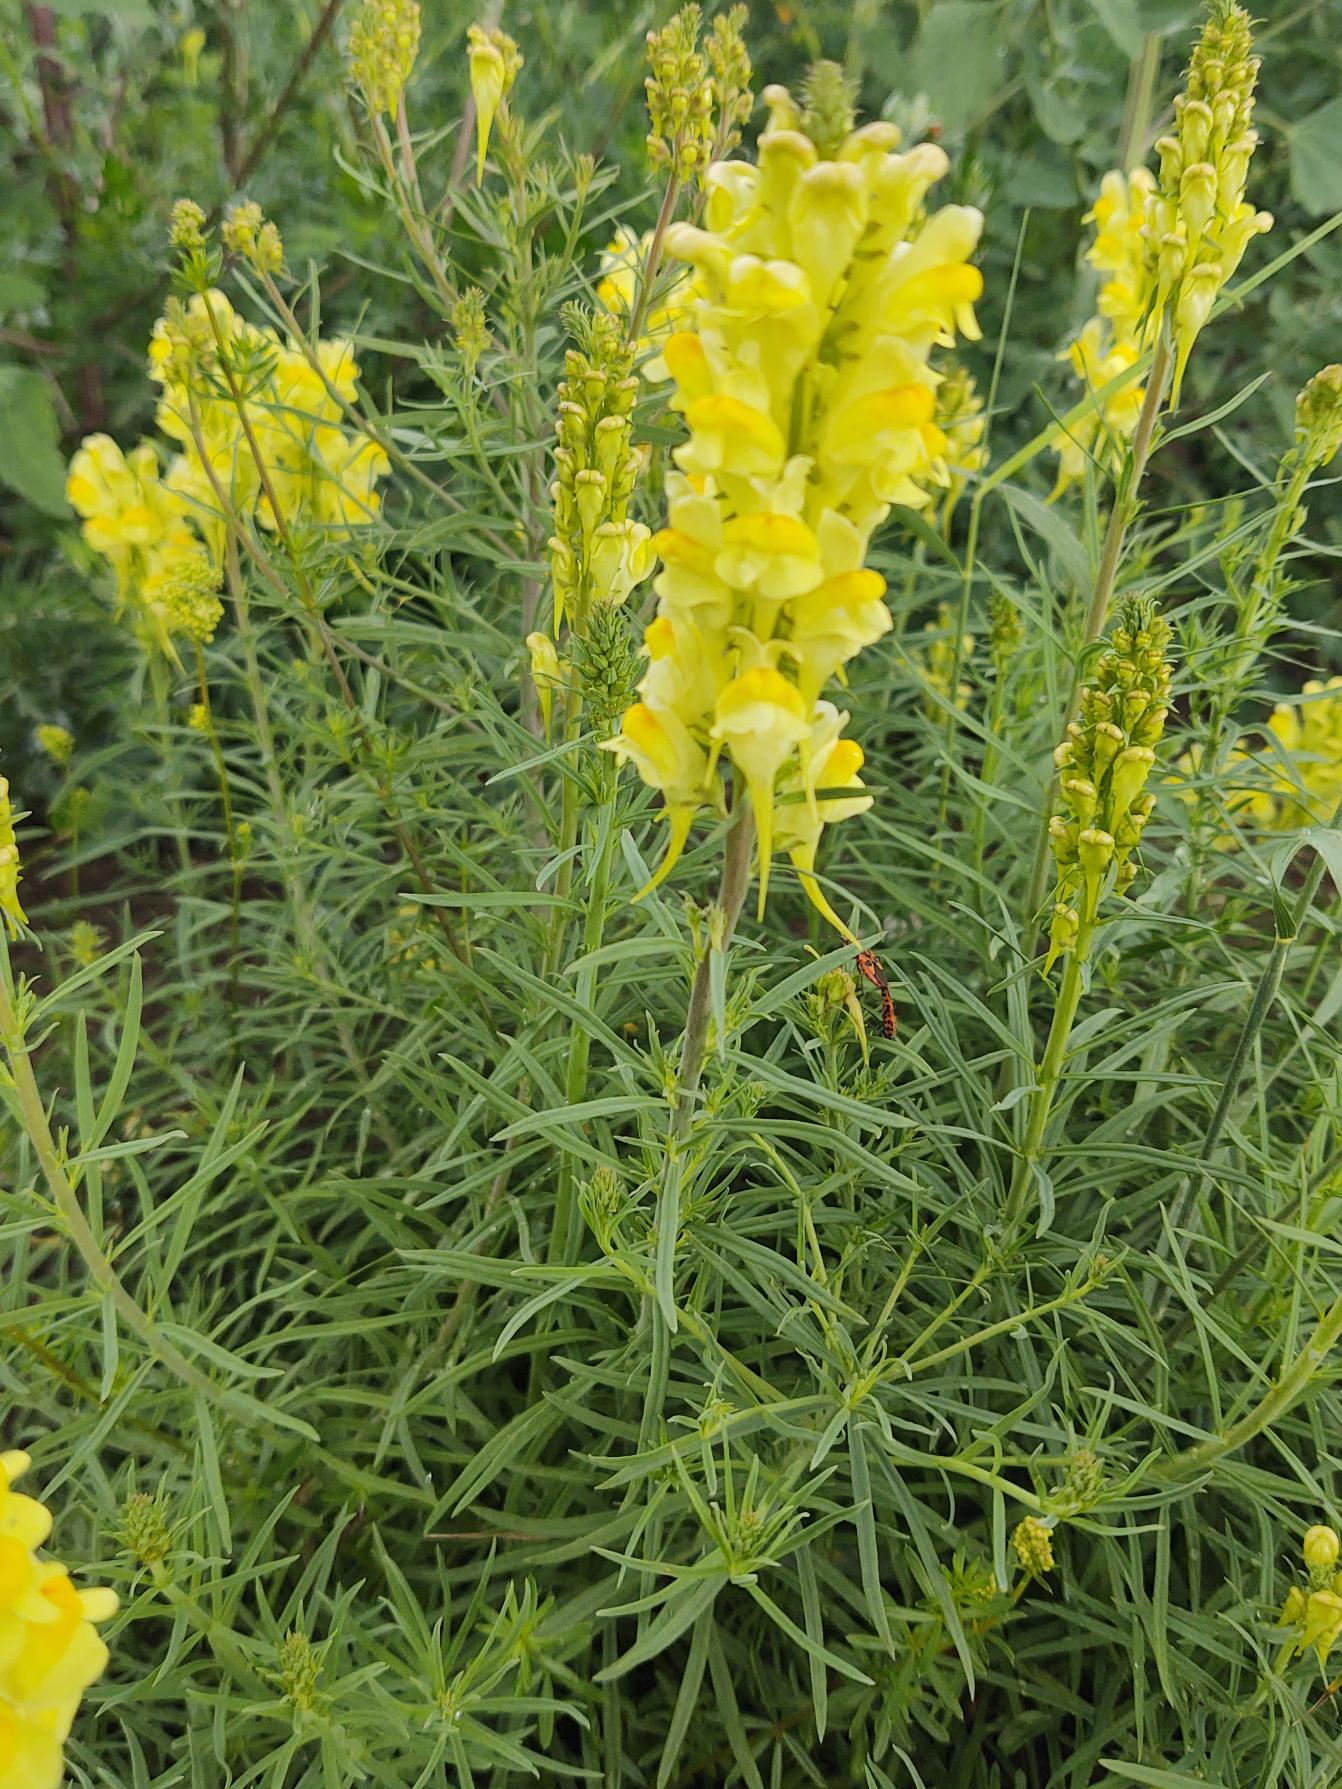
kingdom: Plantae
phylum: Tracheophyta
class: Magnoliopsida
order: Lamiales
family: Plantaginaceae
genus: Linaria
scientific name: Linaria vulgaris
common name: Almindelig torskemund
